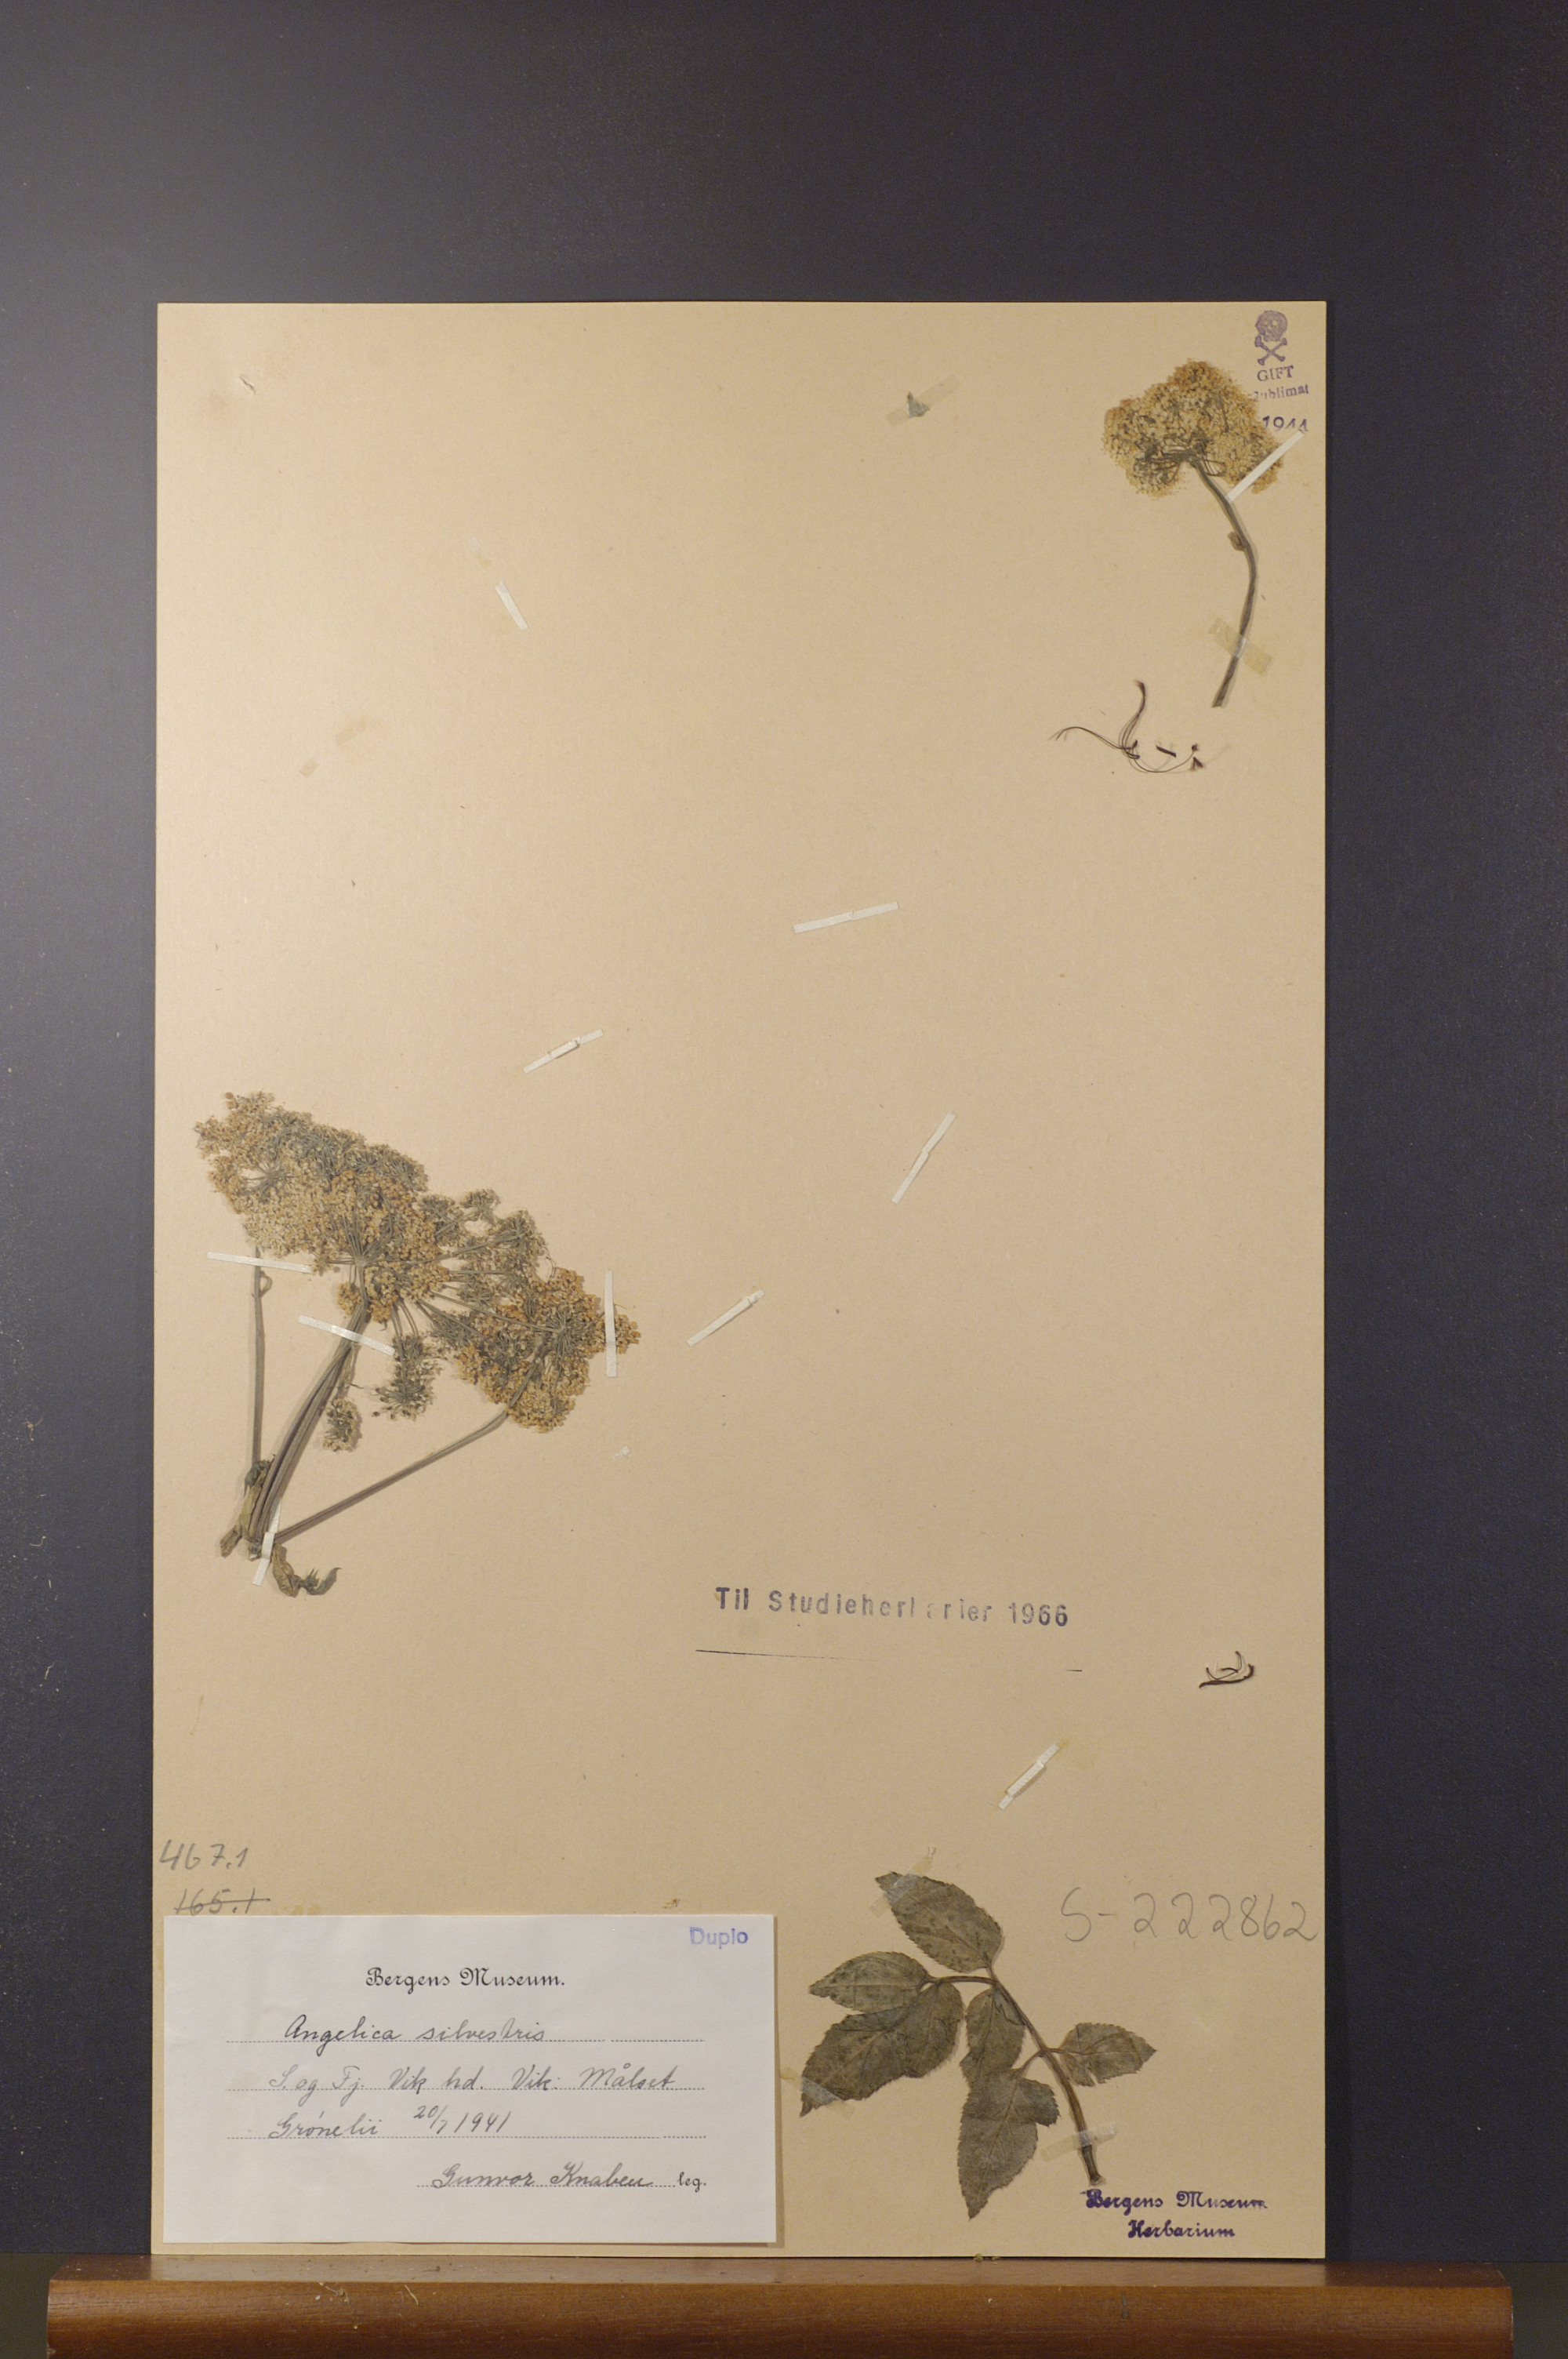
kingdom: Plantae
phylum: Tracheophyta
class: Magnoliopsida
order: Apiales
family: Apiaceae
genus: Angelica
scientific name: Angelica sylvestris
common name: Wild angelica
